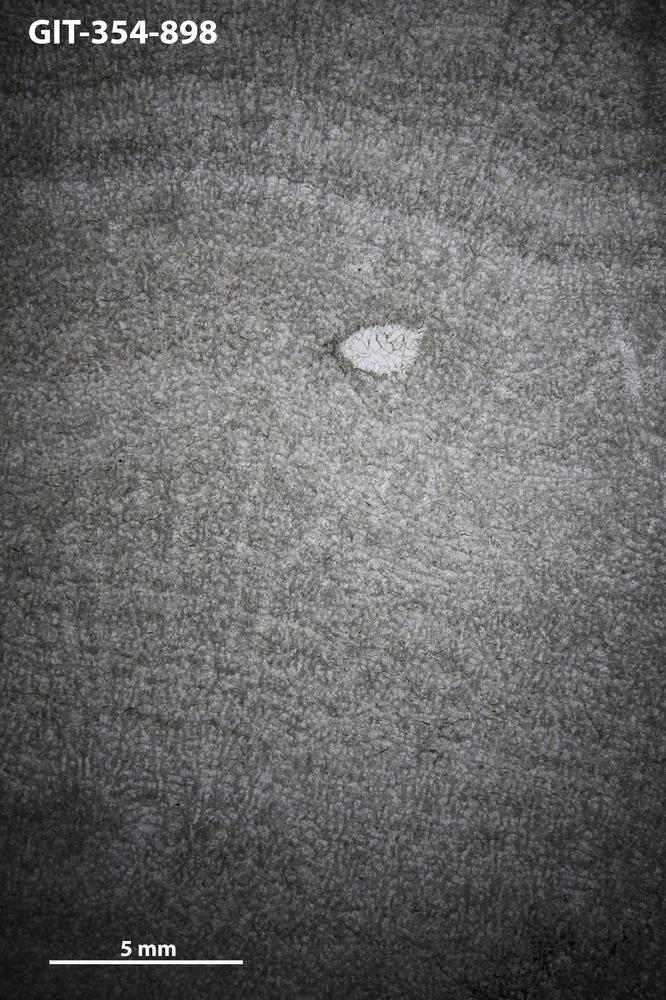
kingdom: Animalia
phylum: Porifera
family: Pseudolabechiidae
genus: Vikingia
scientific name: Vikingia
